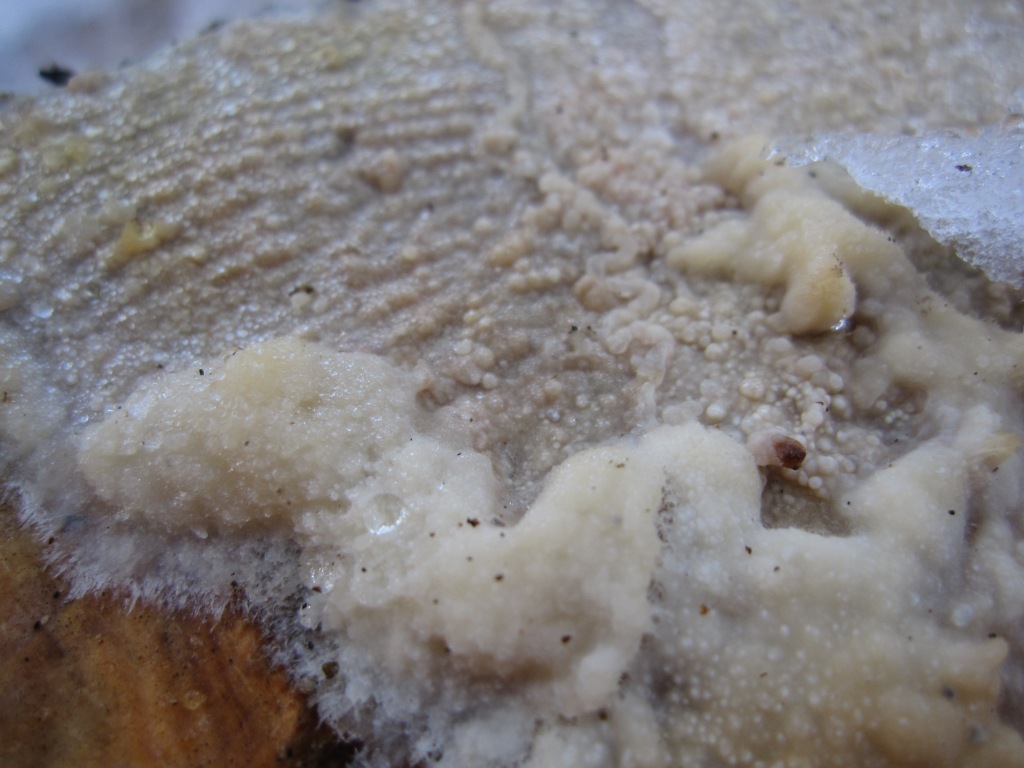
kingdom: Fungi
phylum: Basidiomycota
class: Agaricomycetes
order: Polyporales
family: Phanerochaetaceae
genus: Phlebiopsis
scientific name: Phlebiopsis gigantea
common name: kæmpebarksvamp
